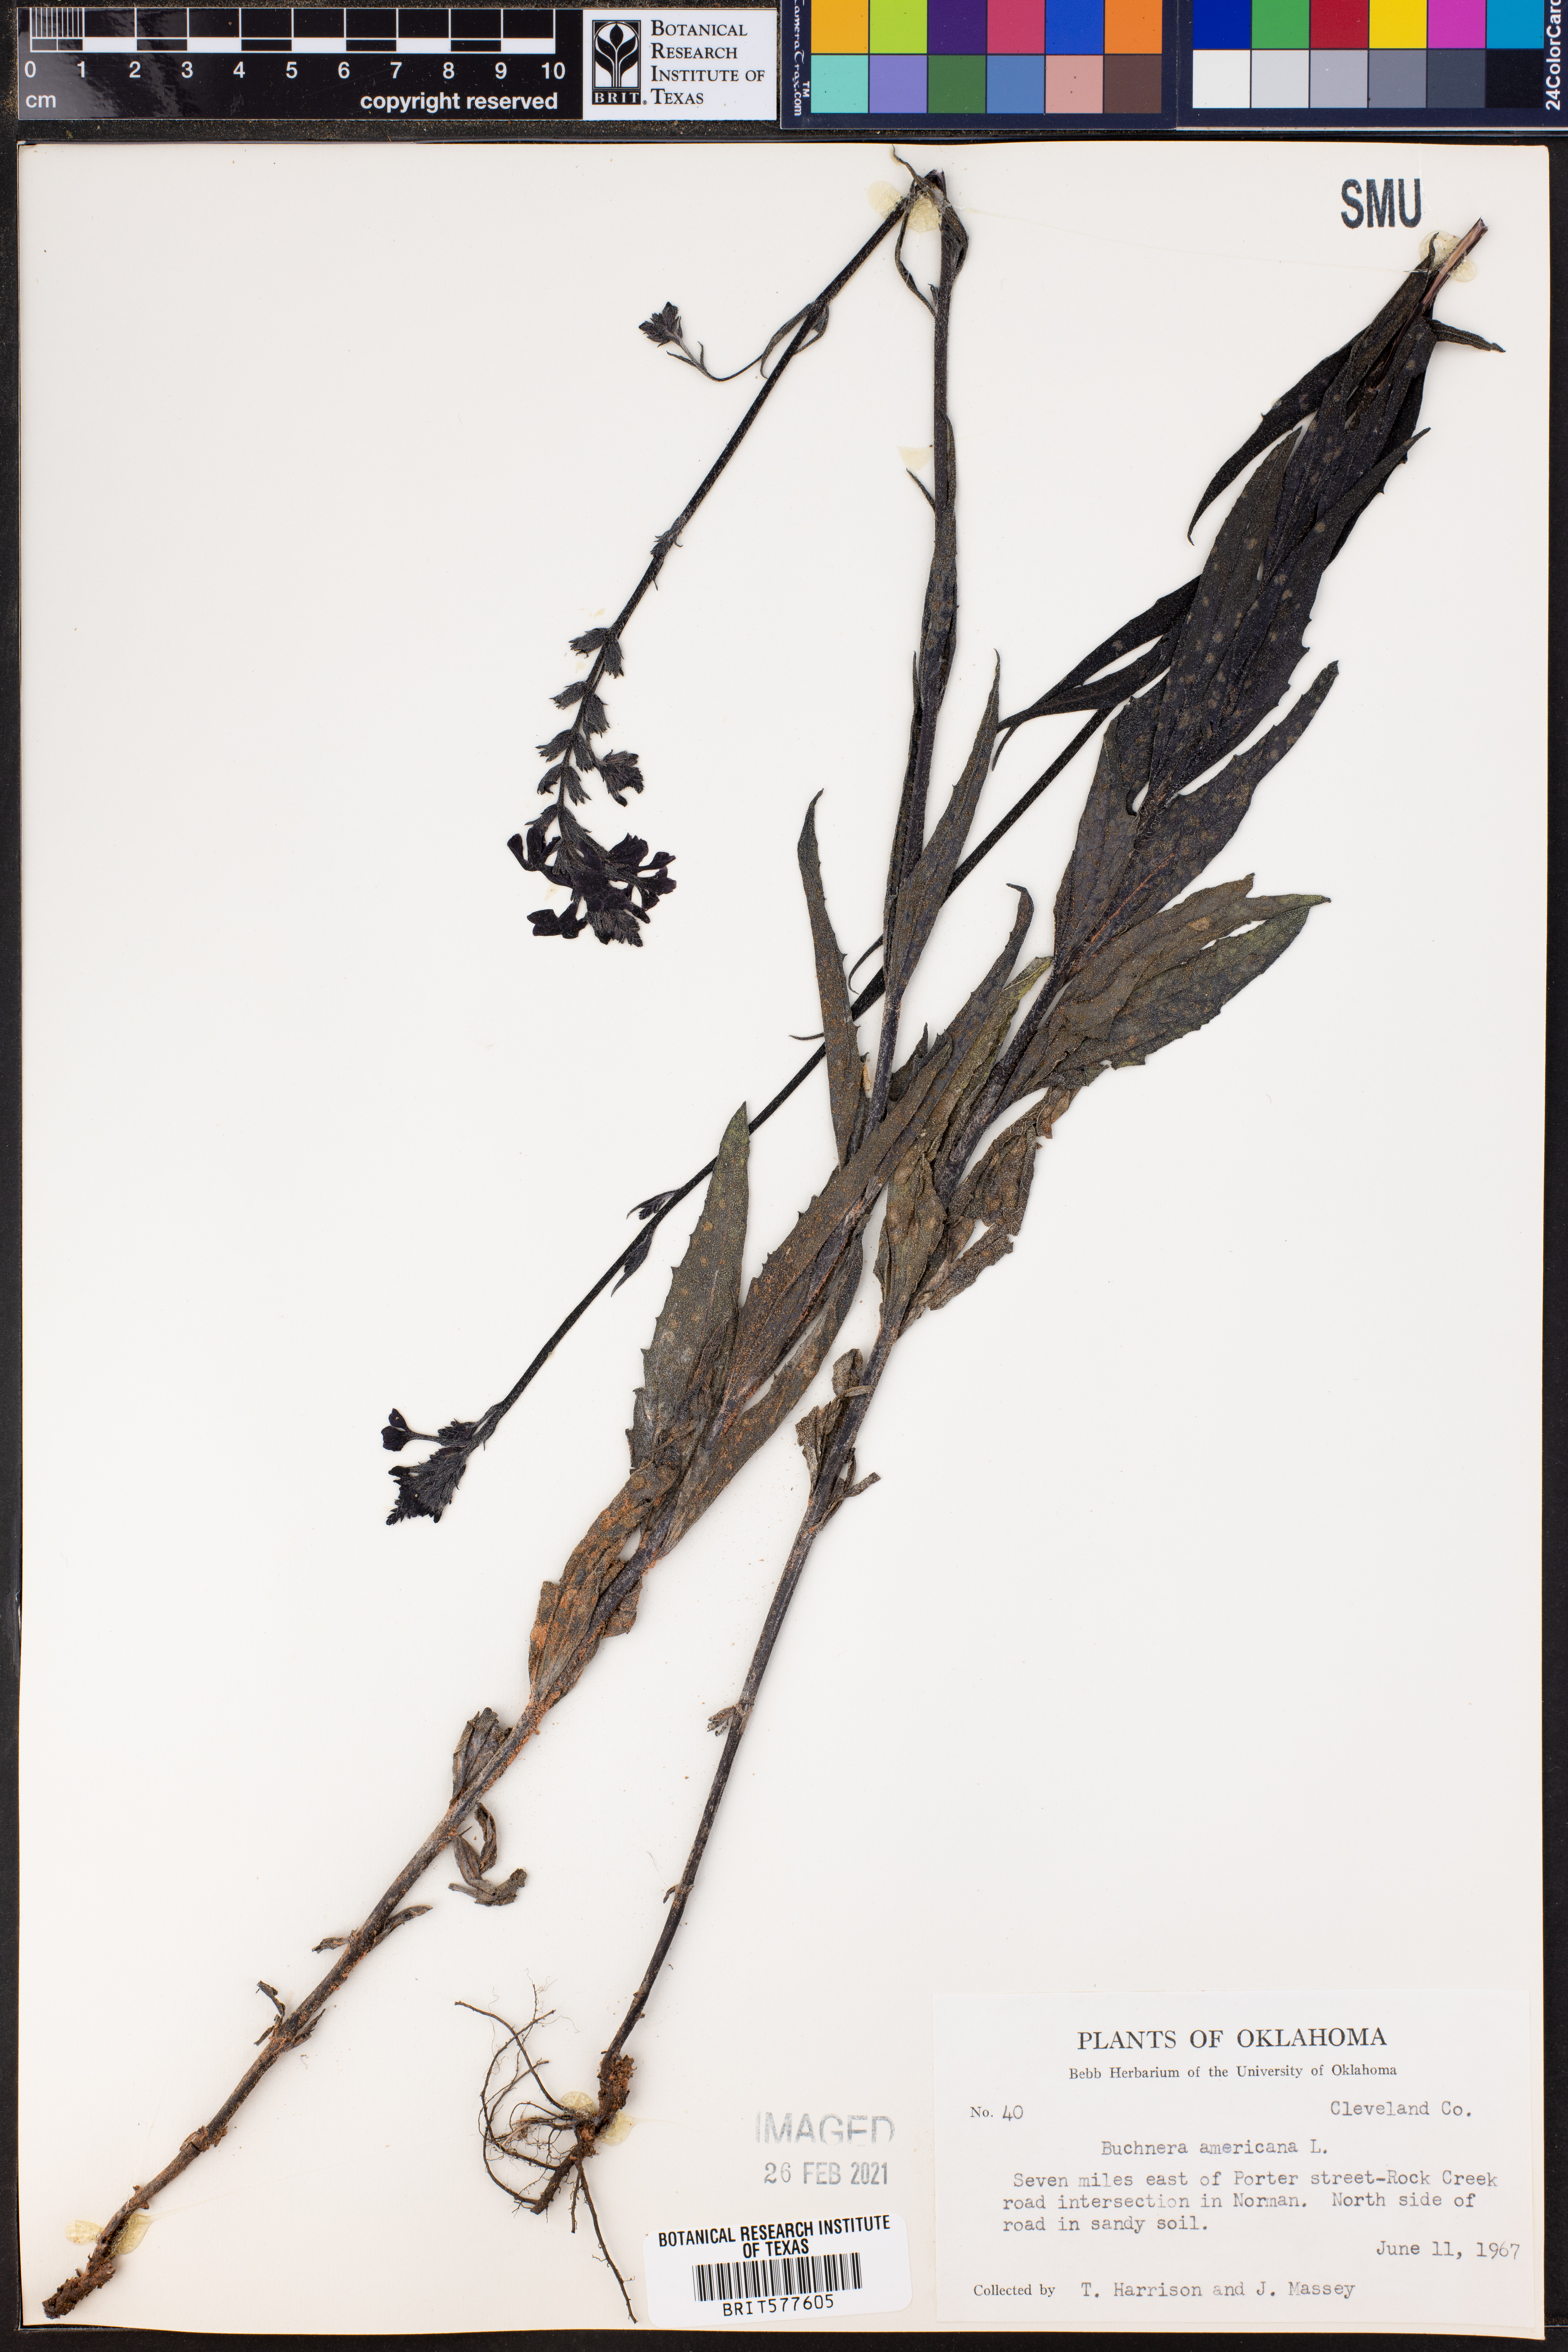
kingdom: Plantae
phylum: Tracheophyta
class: Magnoliopsida
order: Lamiales
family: Orobanchaceae
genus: Buchnera
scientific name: Buchnera americana
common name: American bluehearts
